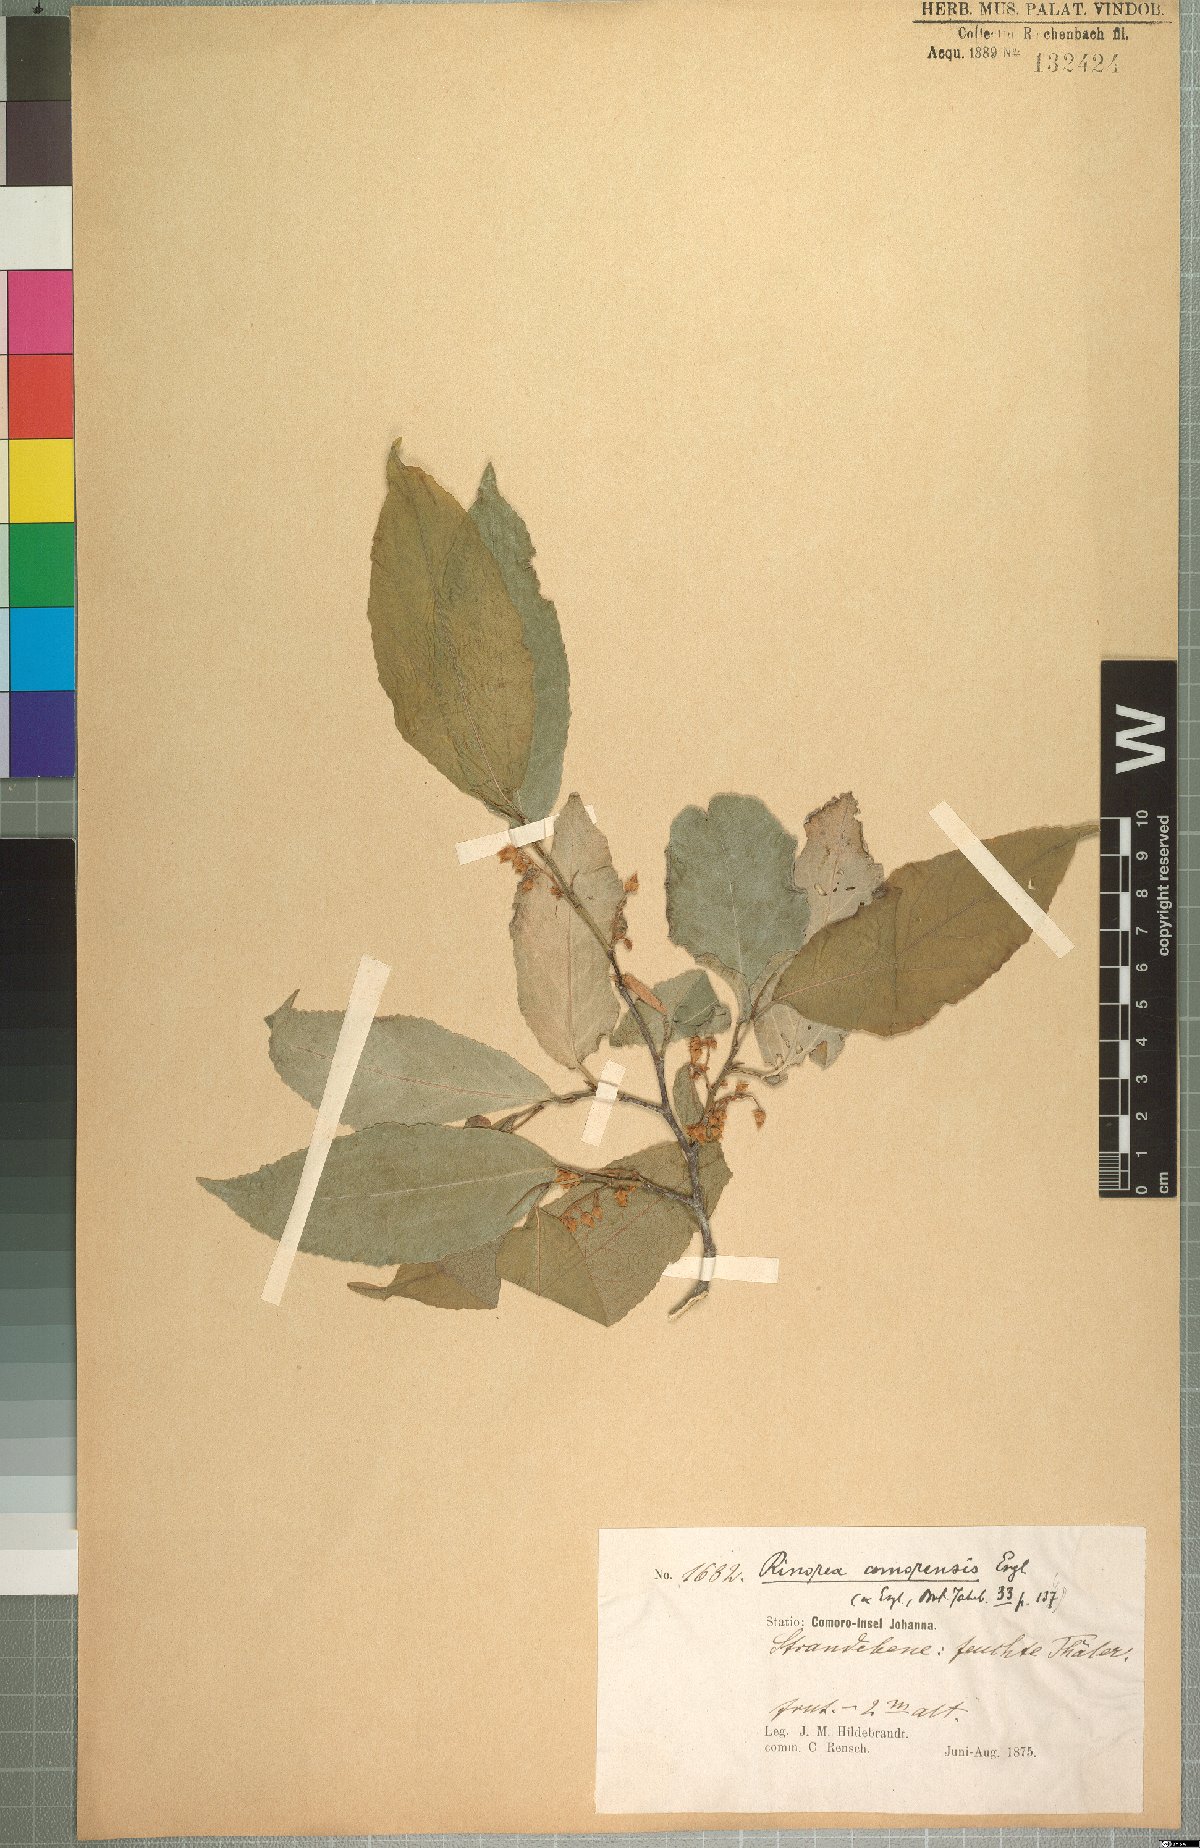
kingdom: Plantae
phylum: Tracheophyta
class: Magnoliopsida
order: Malpighiales
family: Violaceae
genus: Rinorea
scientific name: Rinorea elliptica
